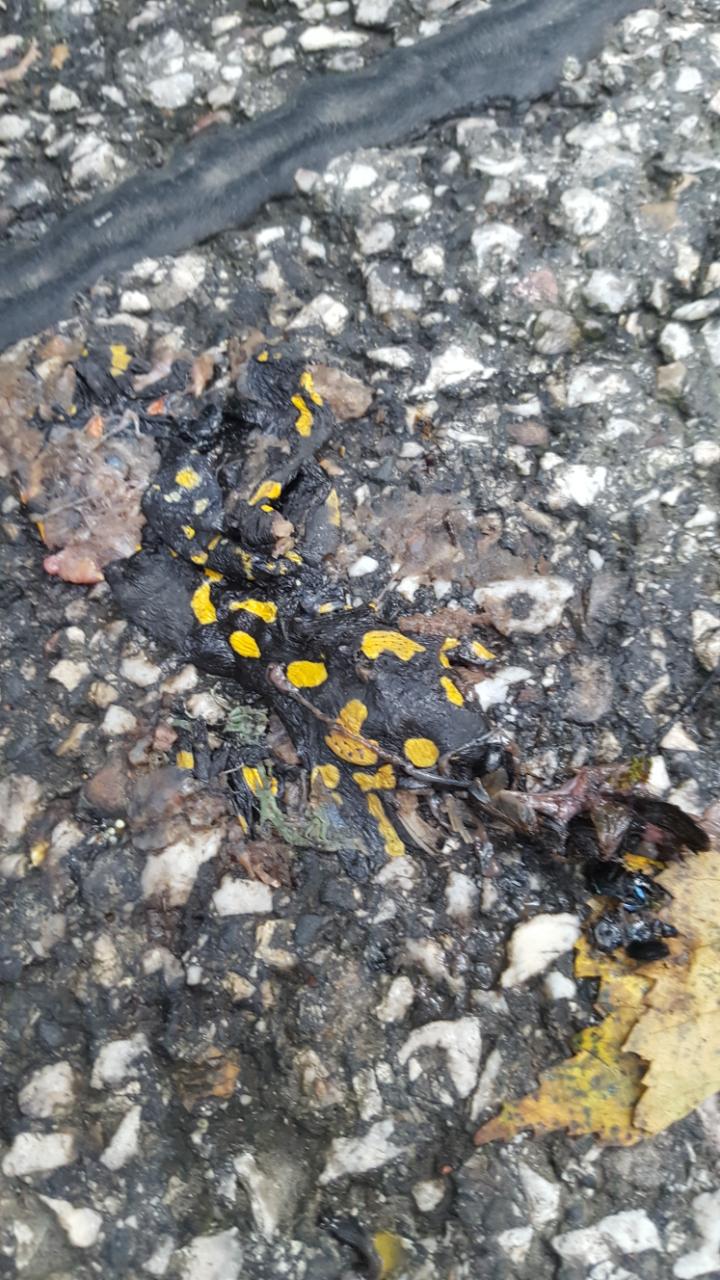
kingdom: Animalia
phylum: Chordata
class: Amphibia
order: Caudata
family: Salamandridae
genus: Salamandra
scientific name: Salamandra salamandra
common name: Fire salamander
